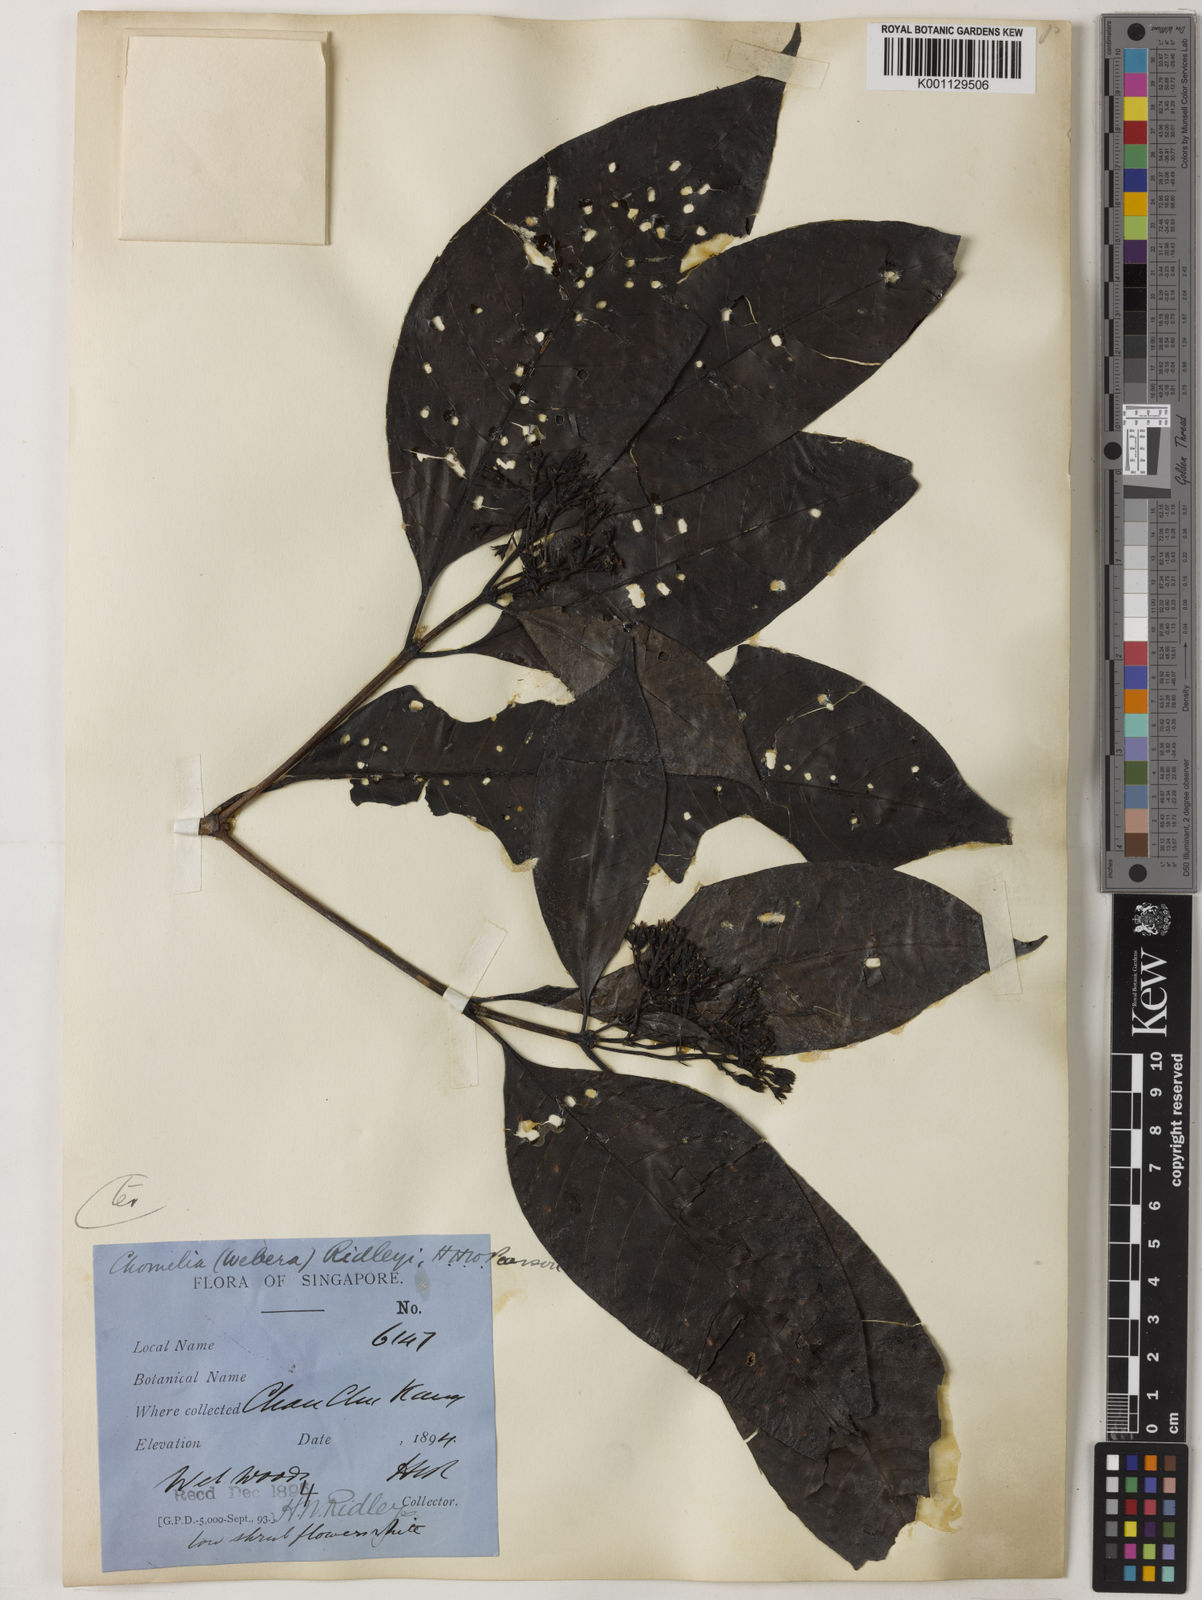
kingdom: Plantae
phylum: Tracheophyta
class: Magnoliopsida
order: Gentianales
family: Rubiaceae
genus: Tarenna
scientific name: Tarenna ridleyi
